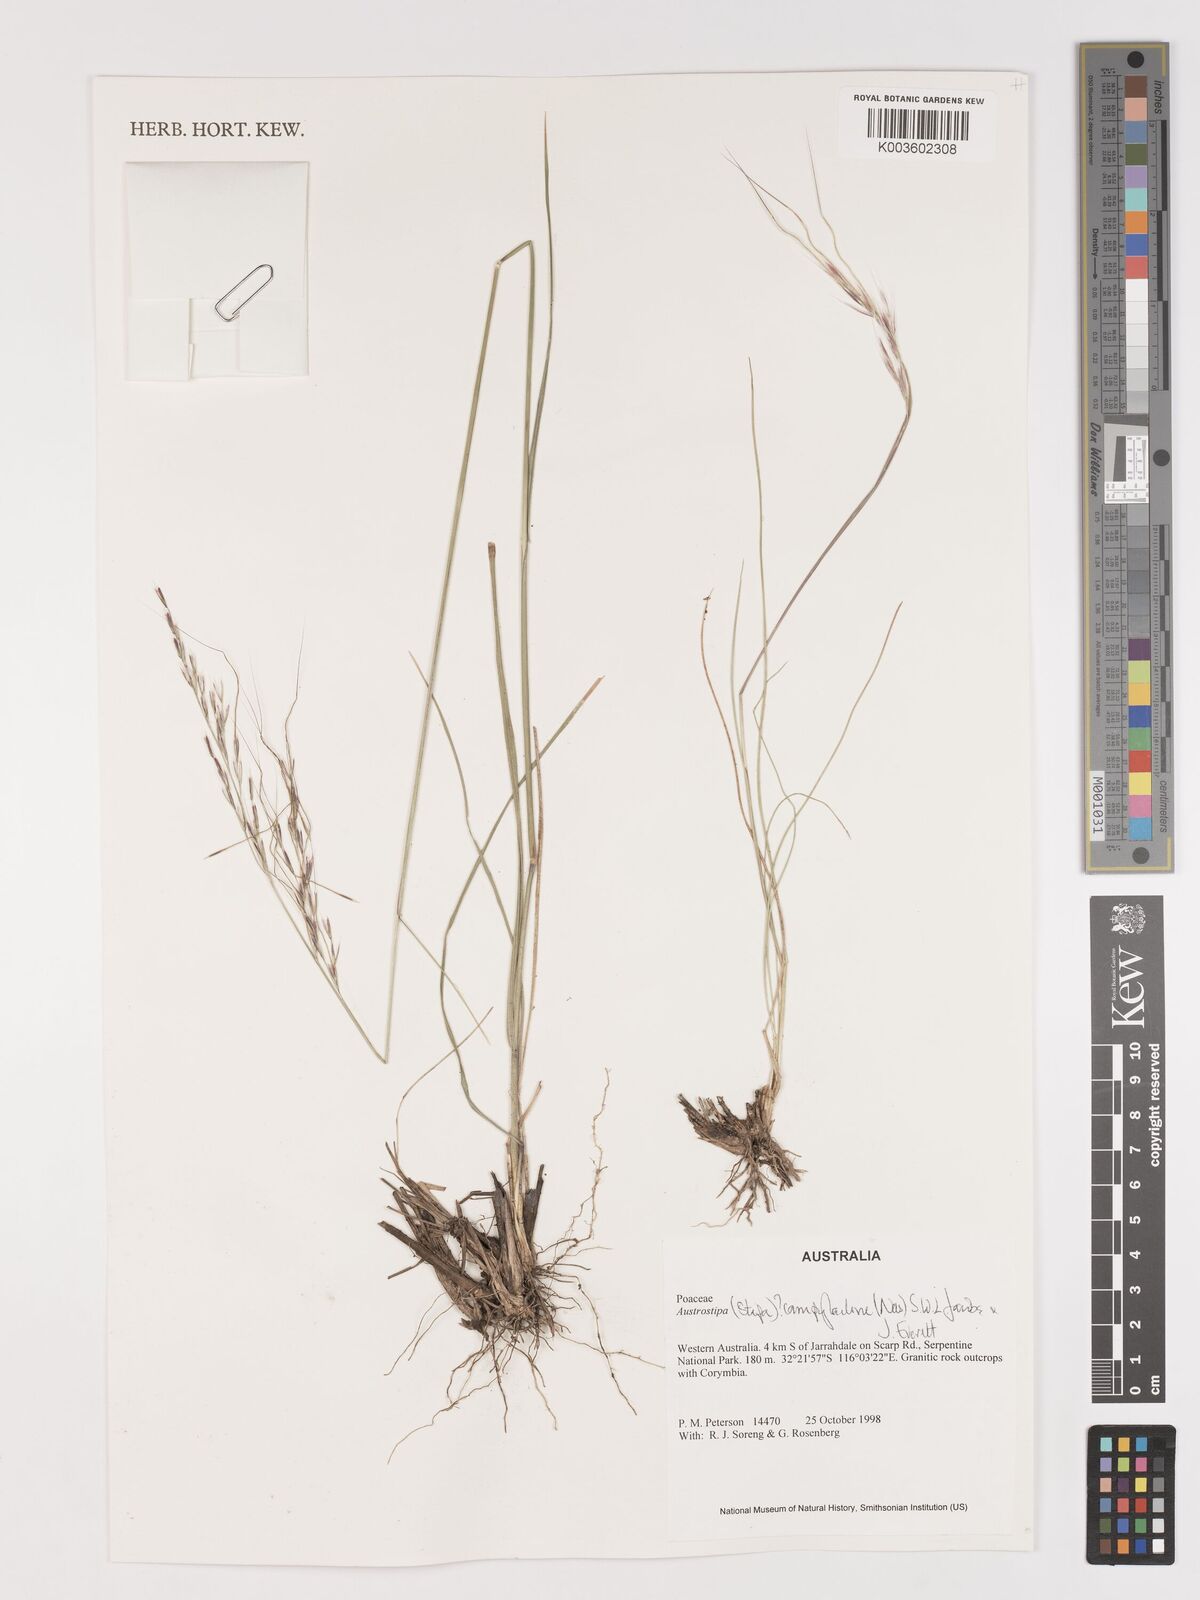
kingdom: Plantae
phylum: Tracheophyta
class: Liliopsida
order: Poales
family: Poaceae
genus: Austrostipa
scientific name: Austrostipa campylachne
